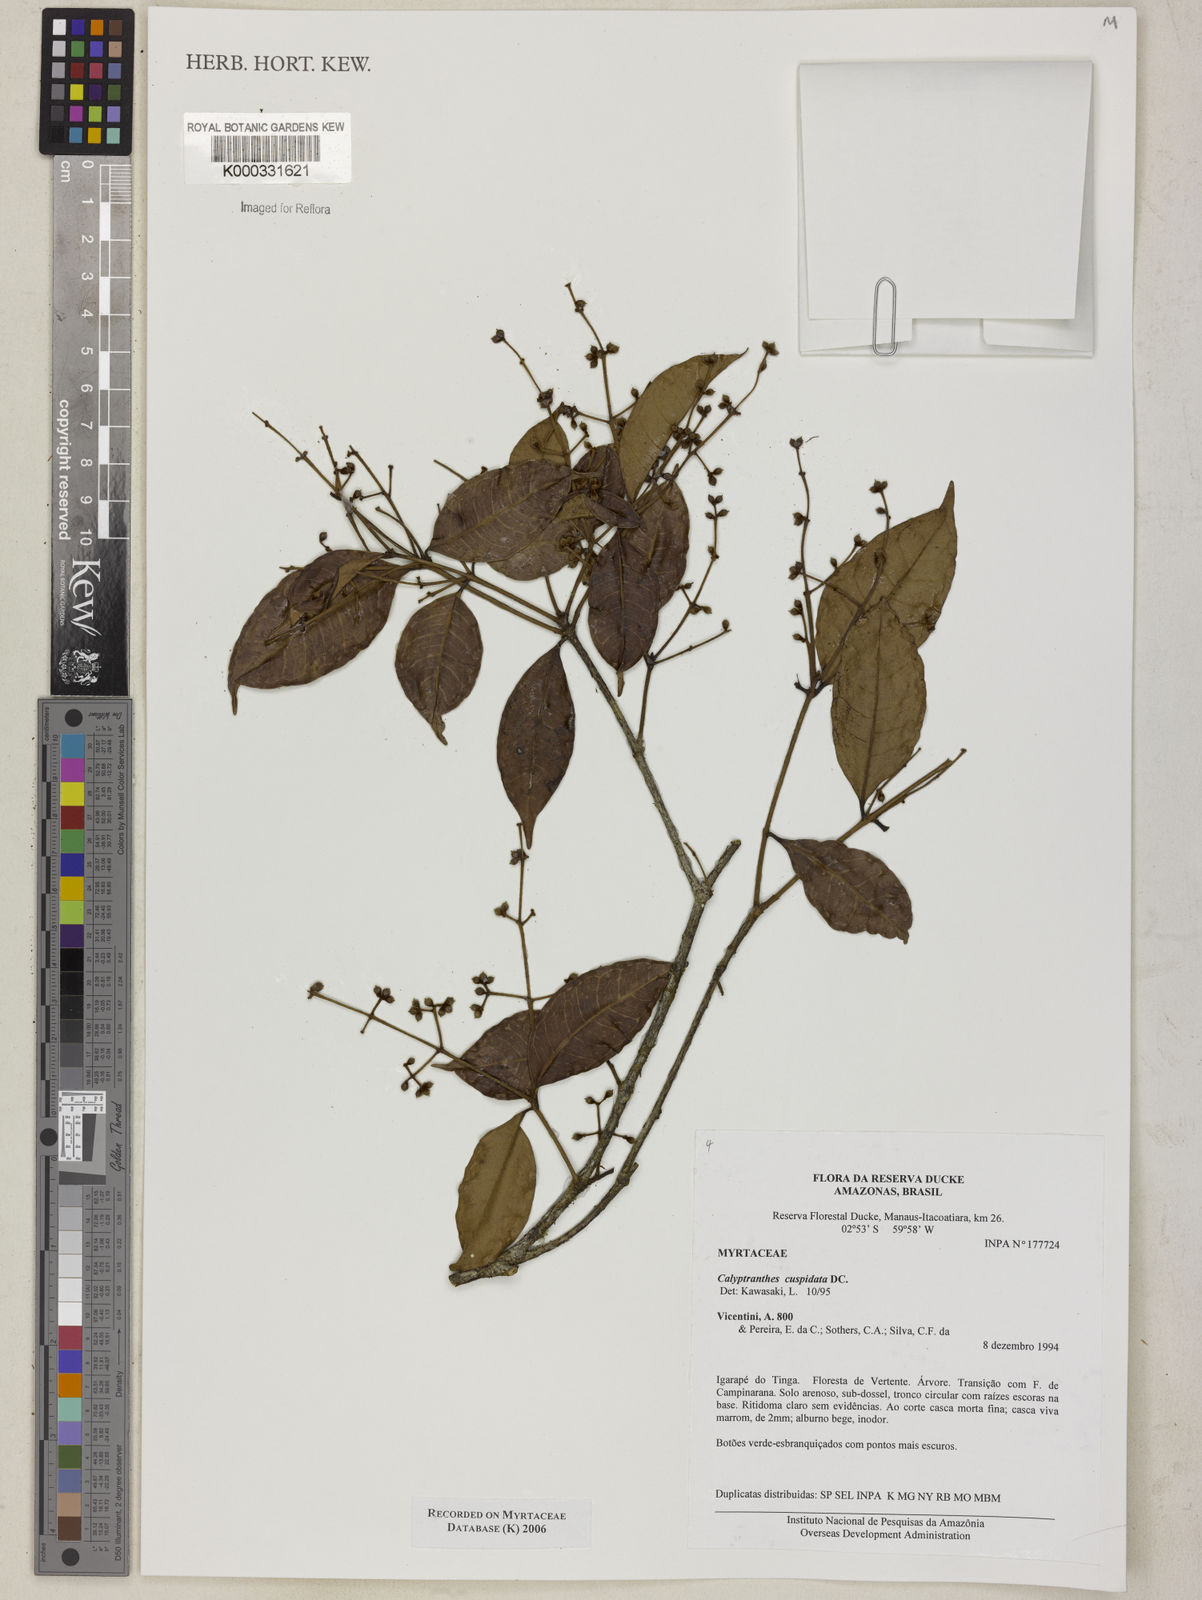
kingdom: Plantae
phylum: Tracheophyta
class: Magnoliopsida
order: Myrtales
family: Myrtaceae
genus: Myrcia
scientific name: Myrcia cuspidata
